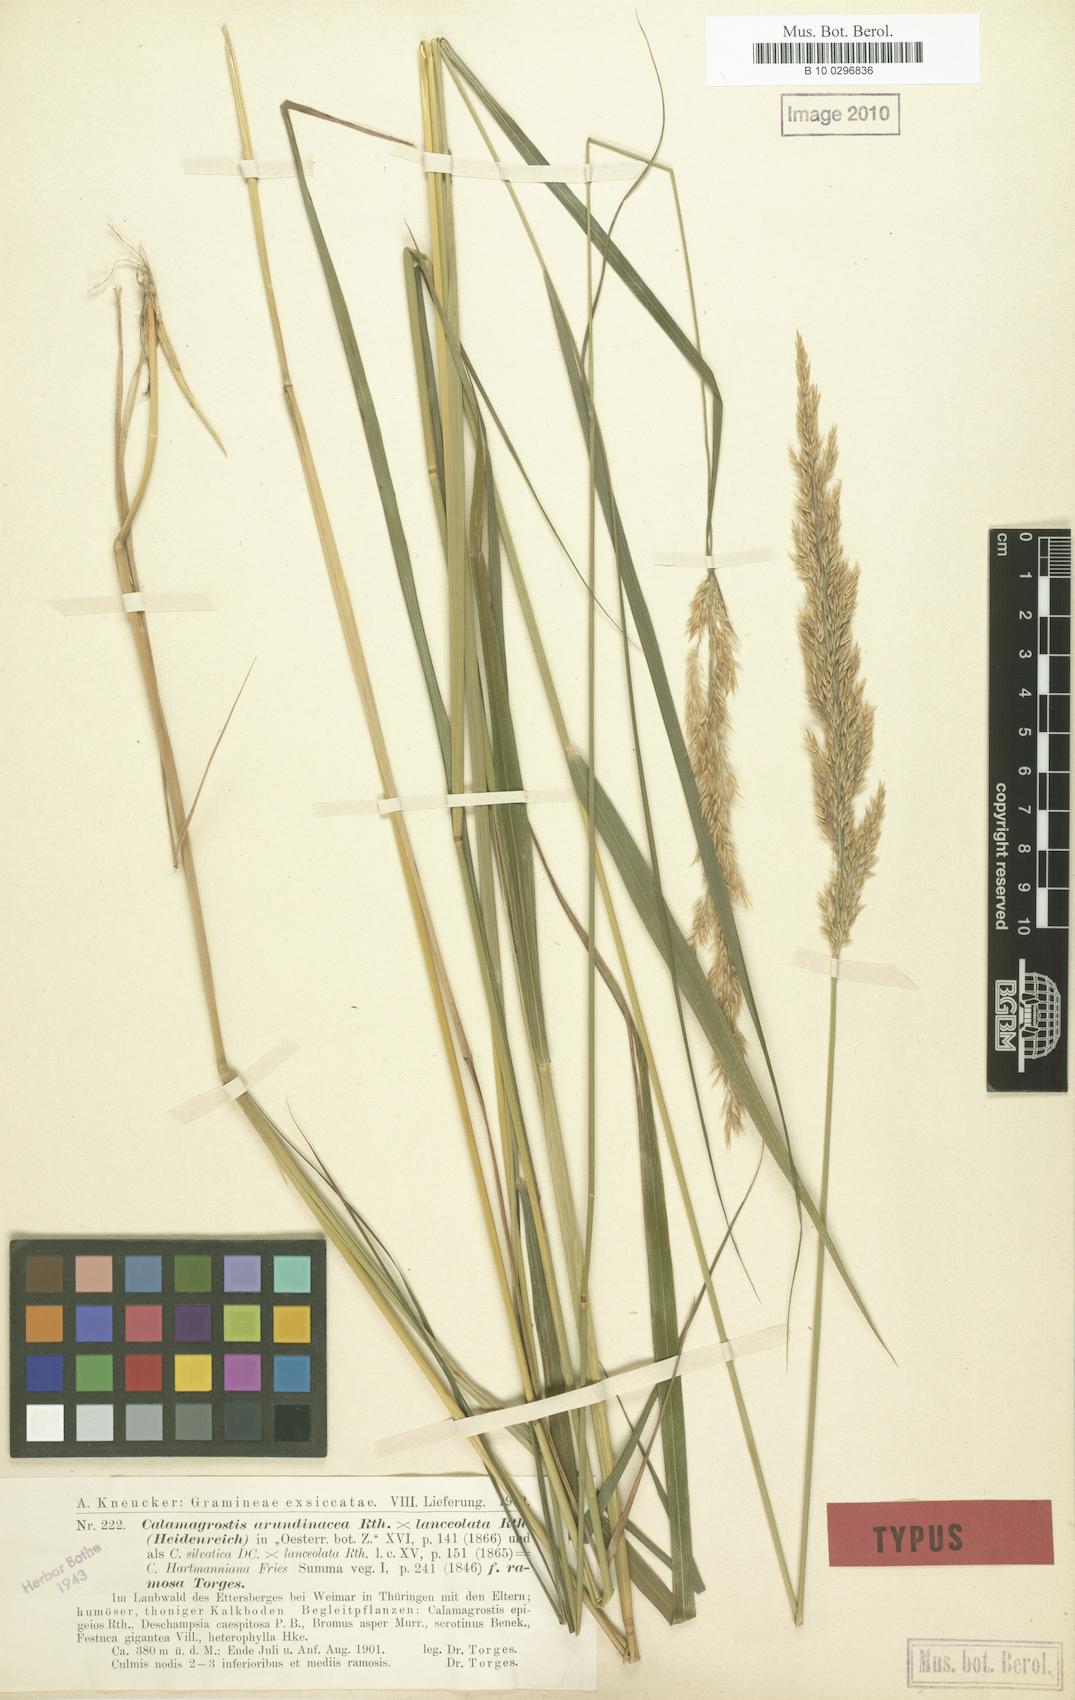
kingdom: Plantae
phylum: Tracheophyta
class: Liliopsida
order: Poales
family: Poaceae
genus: Calamagrostis
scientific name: Calamagrostis hartmaniana
